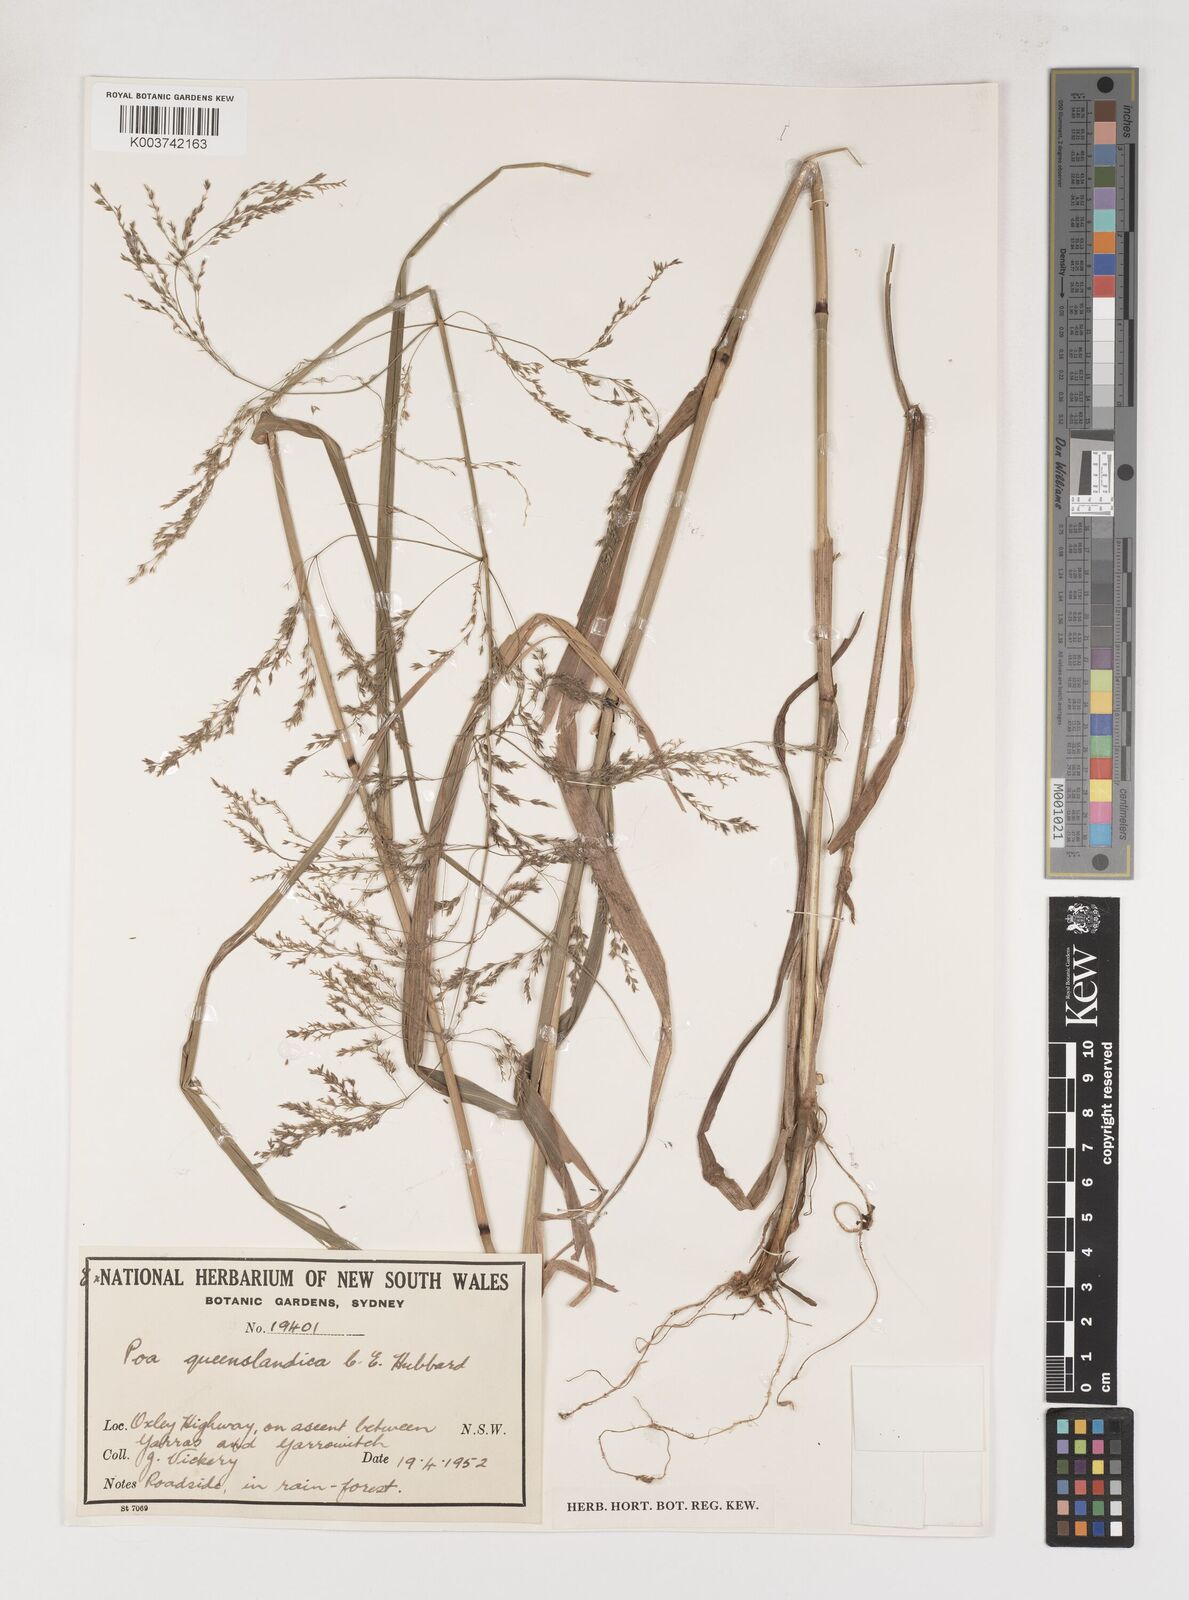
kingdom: Plantae
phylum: Tracheophyta
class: Liliopsida
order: Poales
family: Poaceae
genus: Sylvipoa
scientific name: Sylvipoa queenslandica
